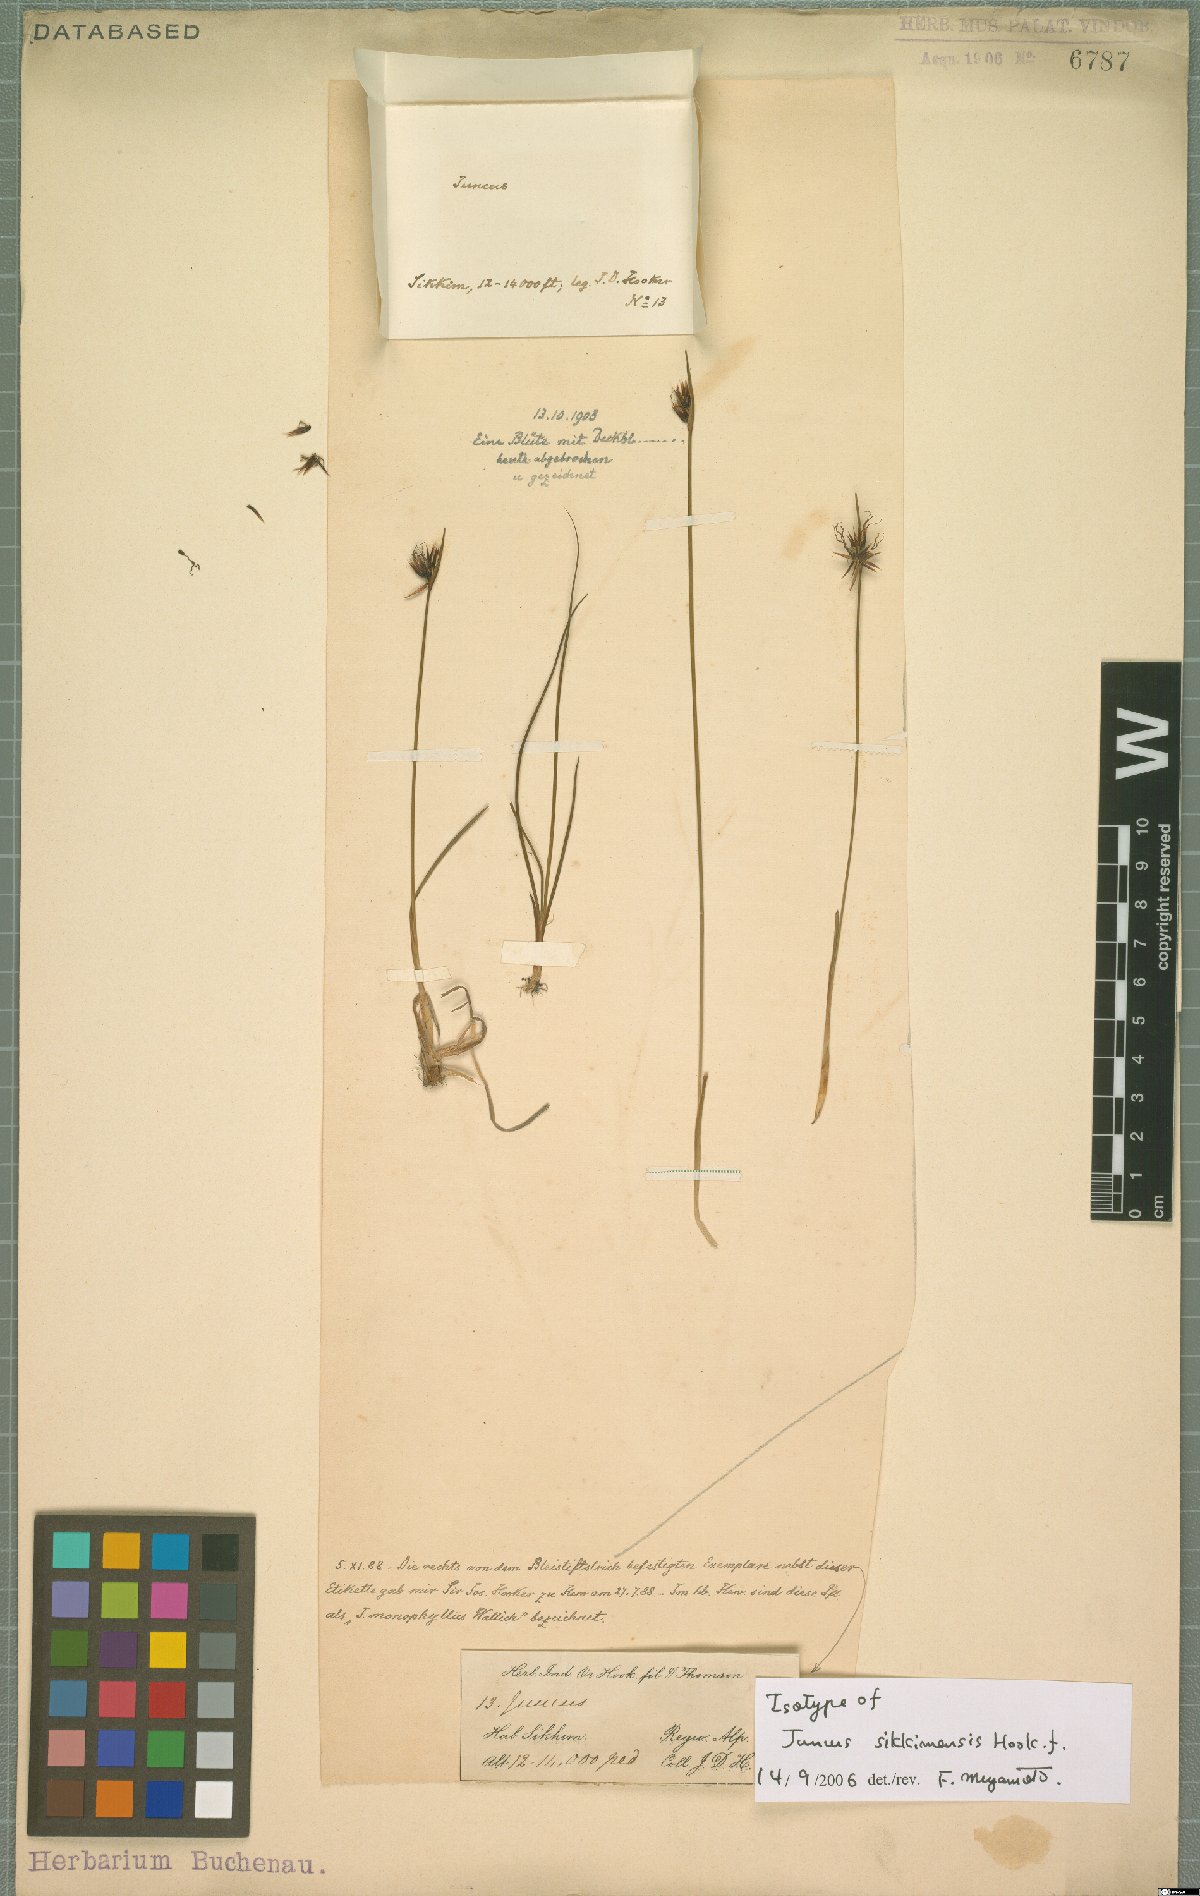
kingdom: Plantae
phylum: Tracheophyta
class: Liliopsida
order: Poales
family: Juncaceae
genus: Juncus
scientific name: Juncus sikkimensis
